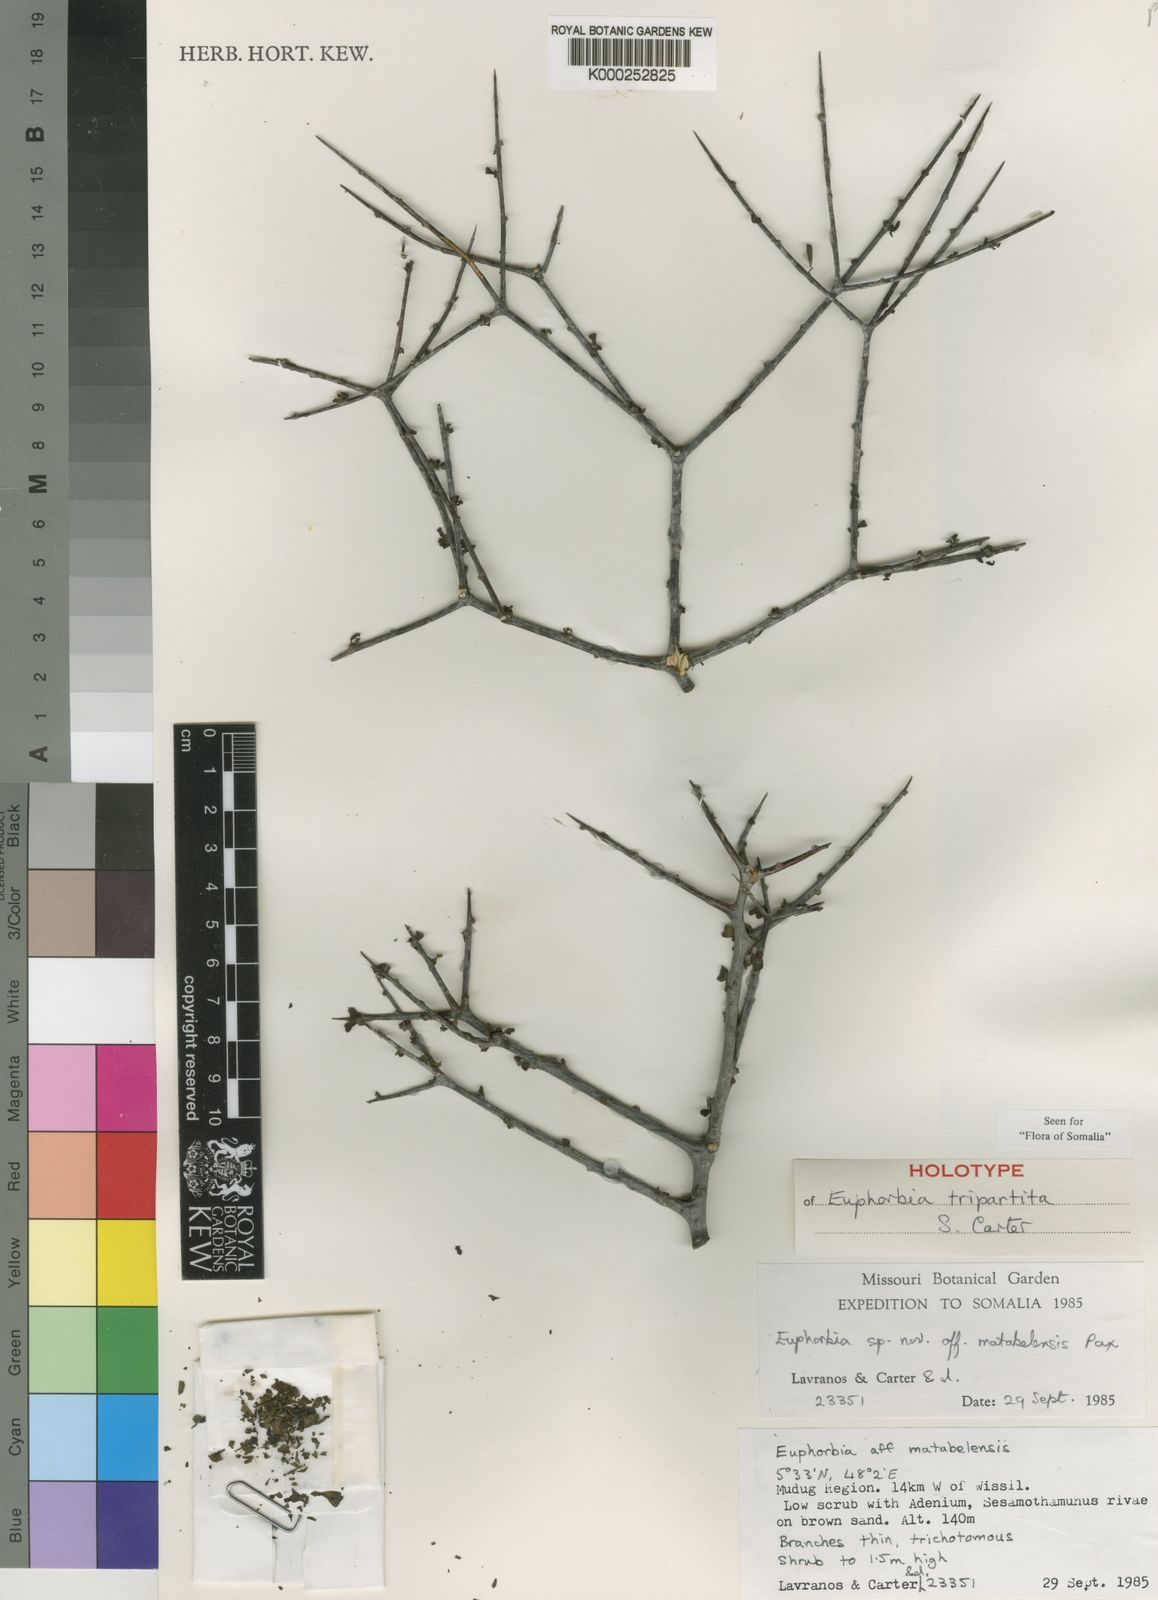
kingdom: Plantae
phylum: Tracheophyta
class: Magnoliopsida
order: Malpighiales
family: Euphorbiaceae
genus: Euphorbia
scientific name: Euphorbia tripartita
